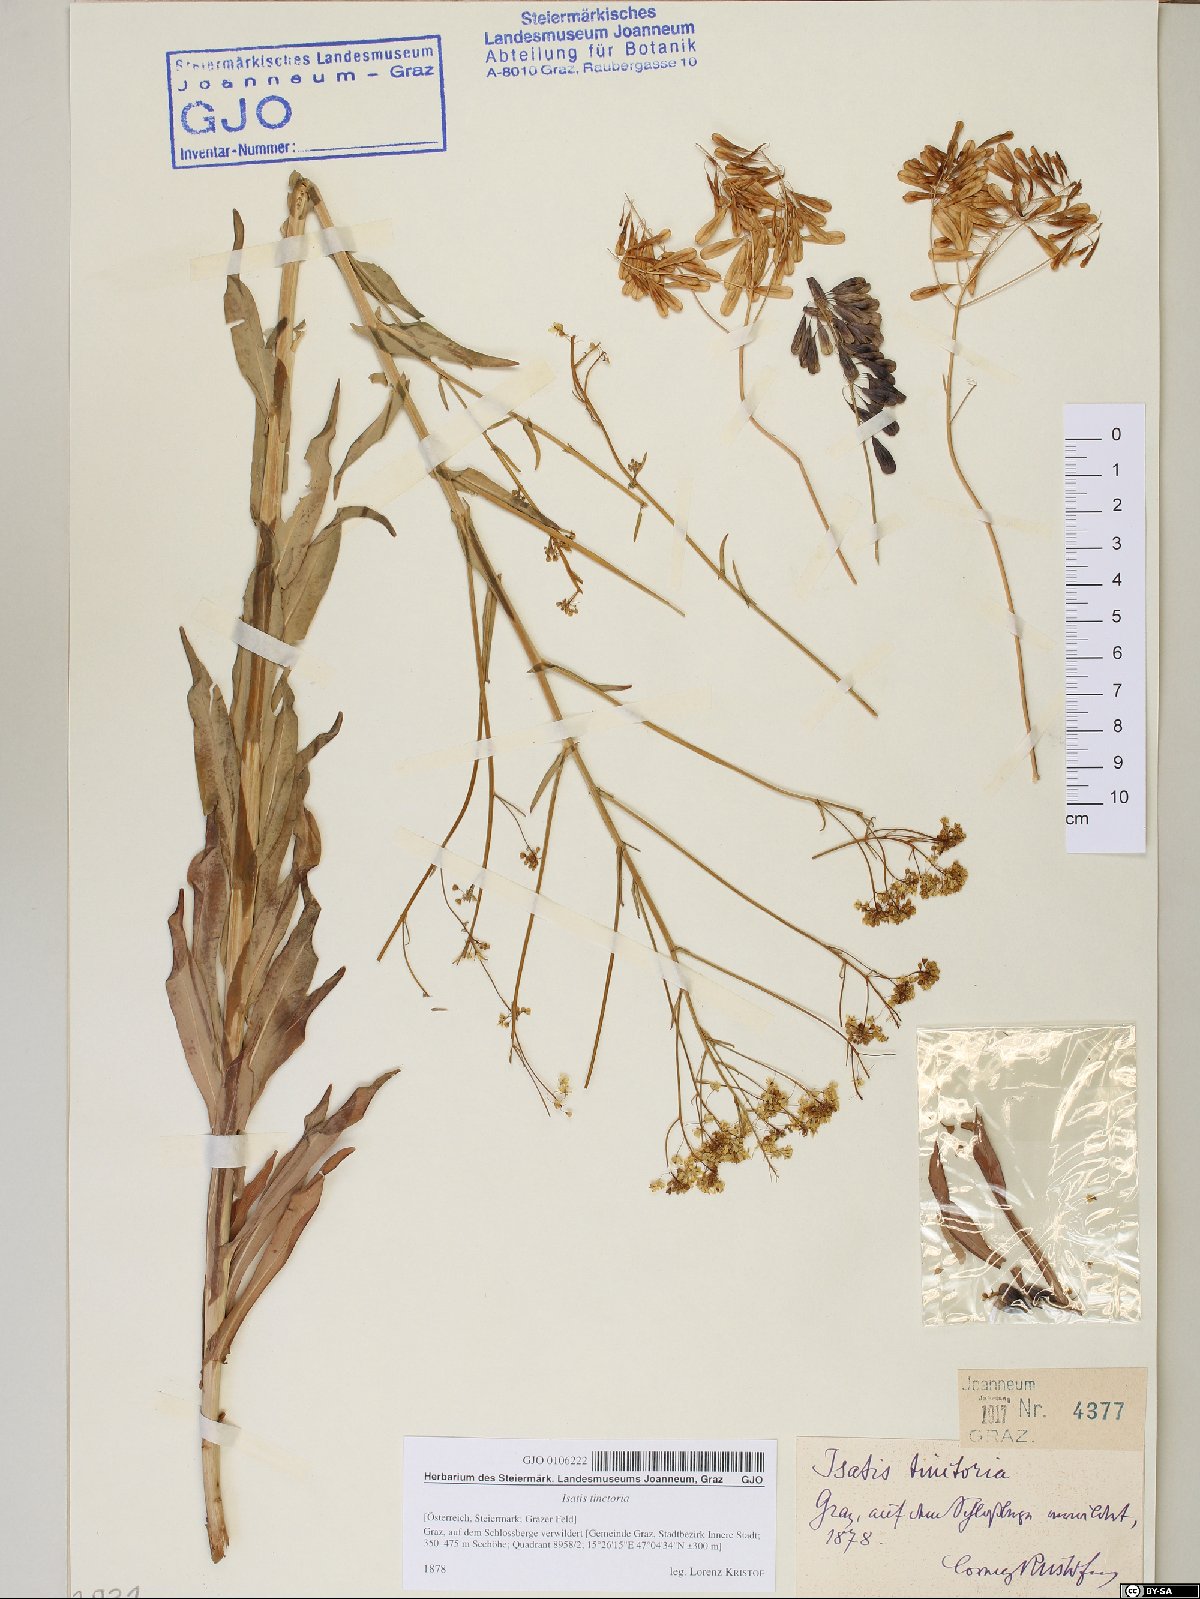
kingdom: Plantae
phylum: Tracheophyta
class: Magnoliopsida
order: Brassicales
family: Brassicaceae
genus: Isatis
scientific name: Isatis tinctoria
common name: Woad
